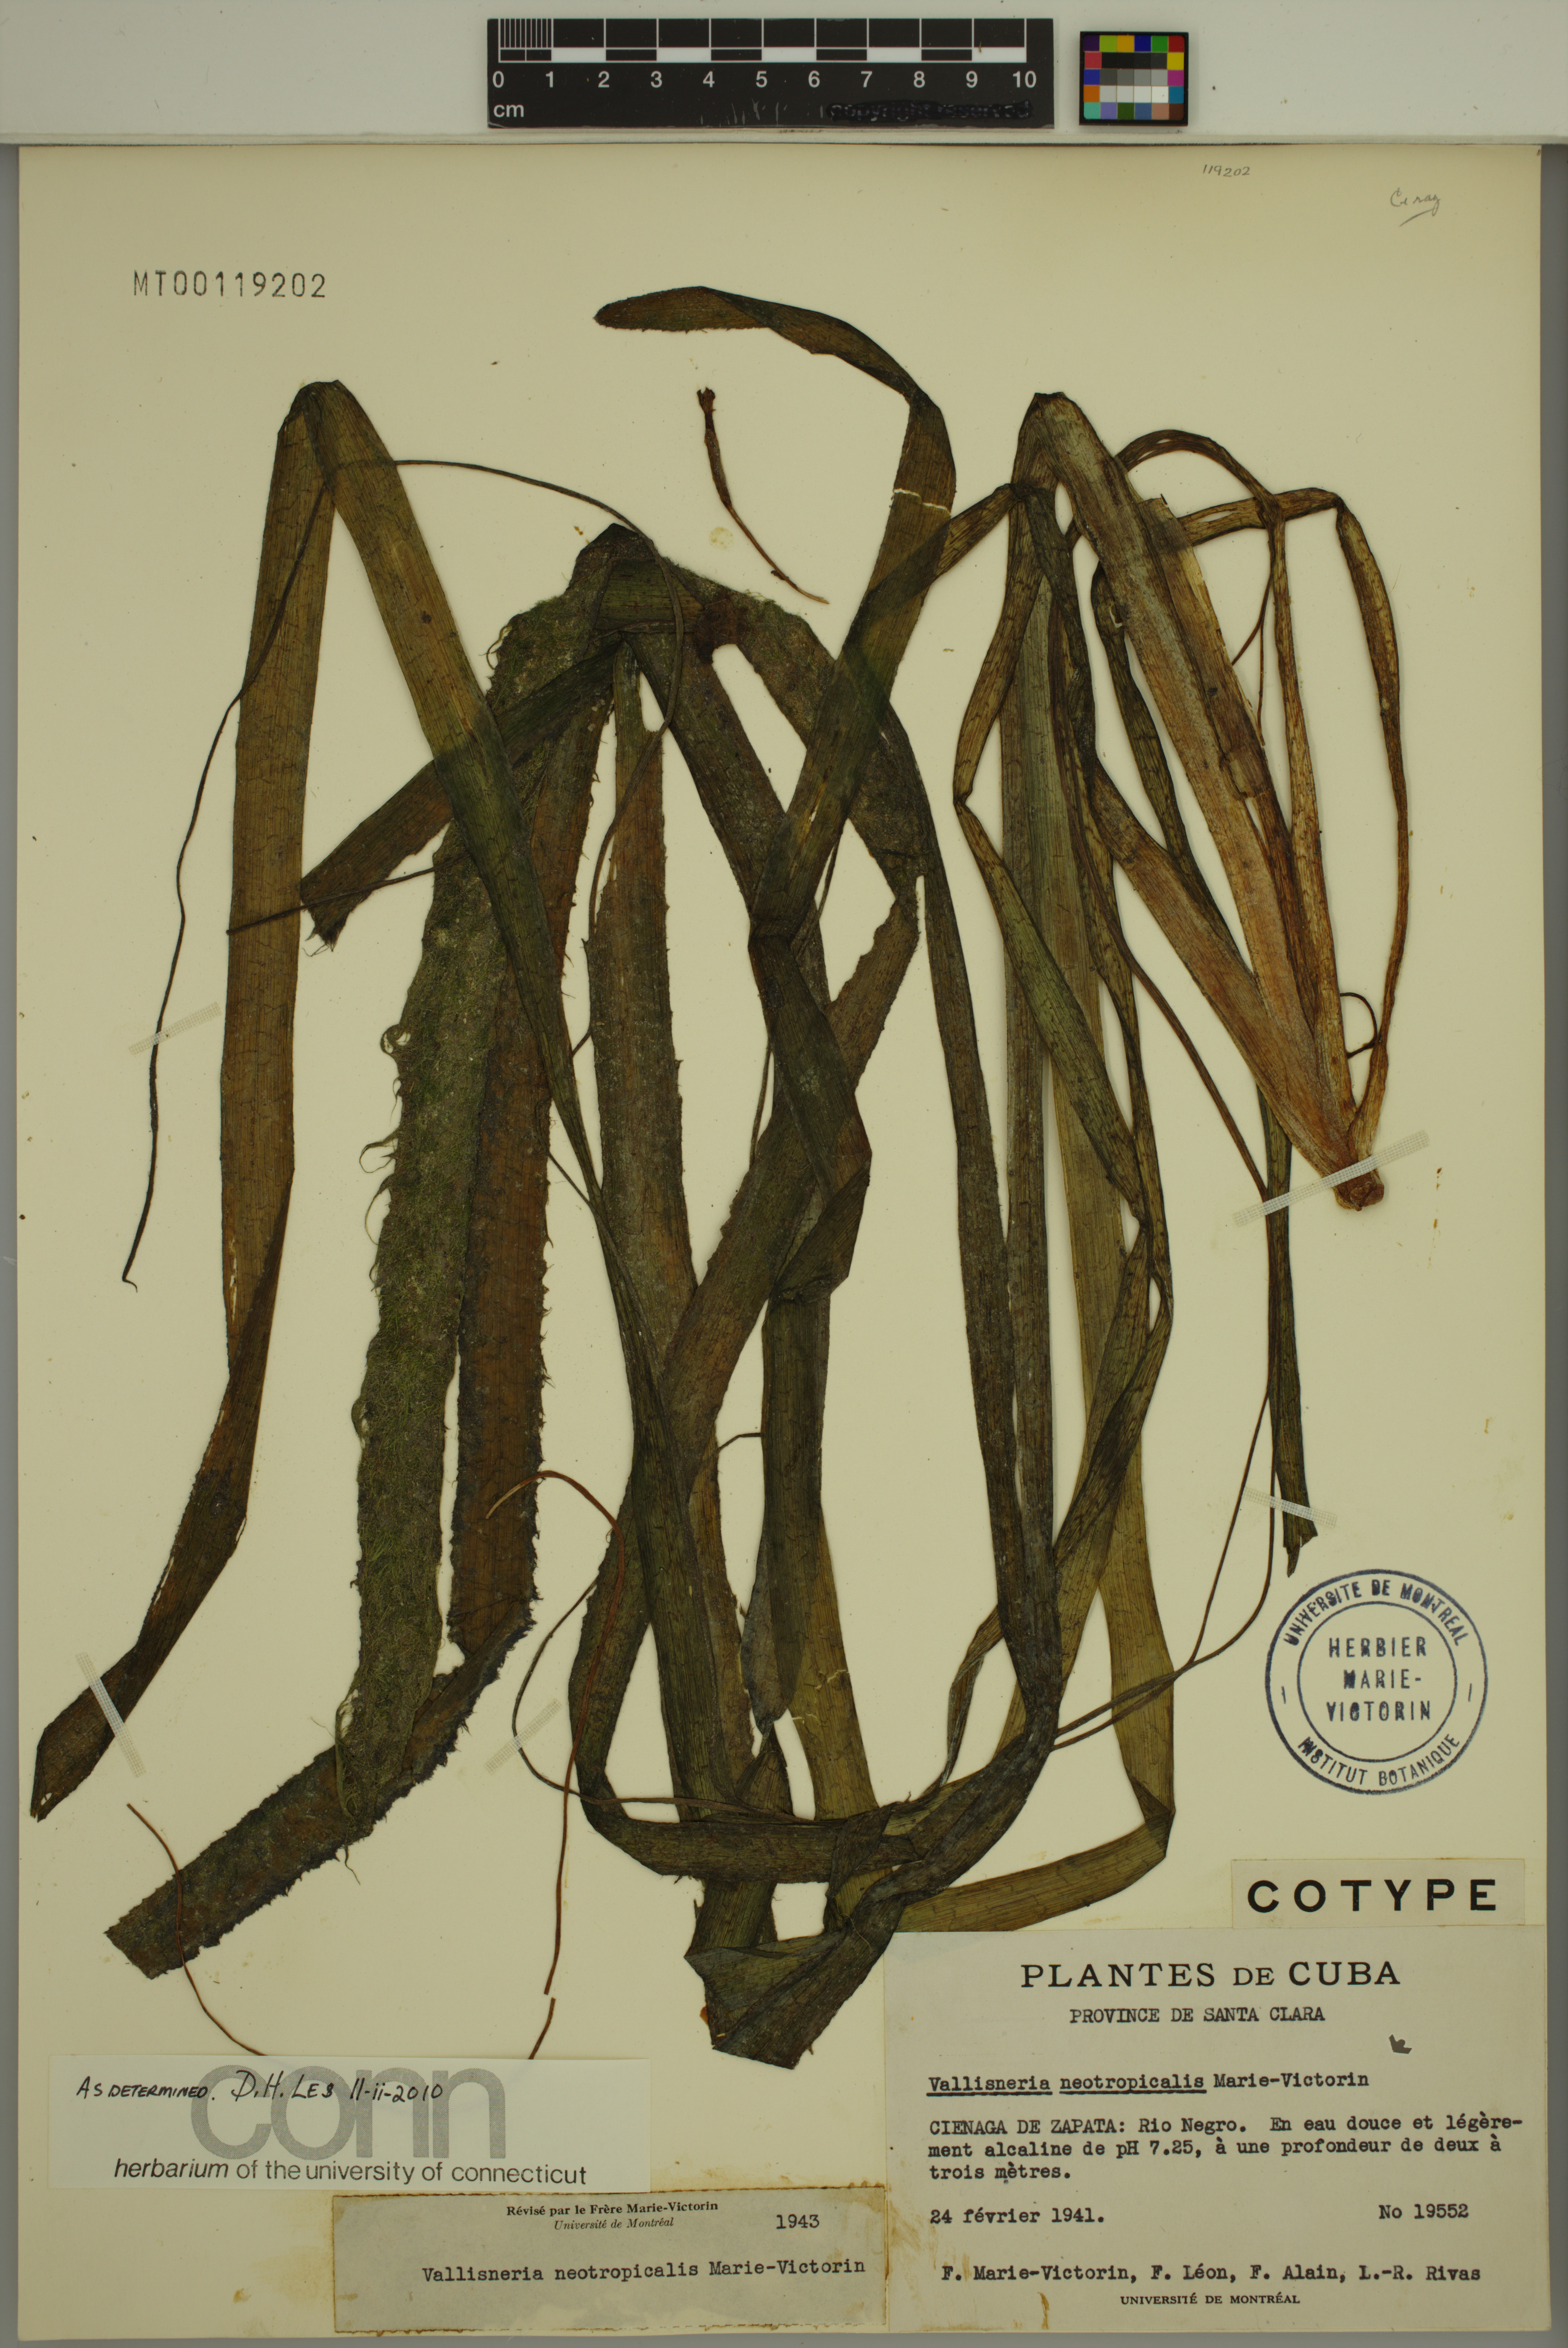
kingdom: Plantae
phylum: Tracheophyta
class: Liliopsida
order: Alismatales
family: Hydrocharitaceae
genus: Vallisneria
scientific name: Vallisneria americana
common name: American eelgrass
